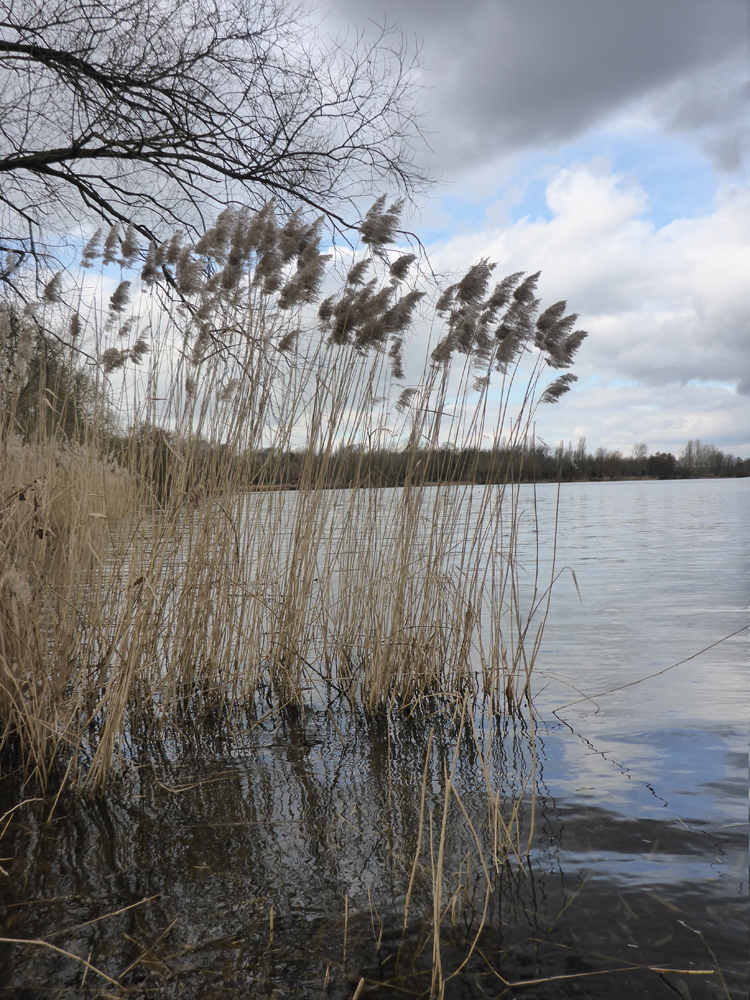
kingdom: Plantae
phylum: Tracheophyta
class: Liliopsida
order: Poales
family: Poaceae
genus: Phragmites
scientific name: Phragmites australis
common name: Common reed
